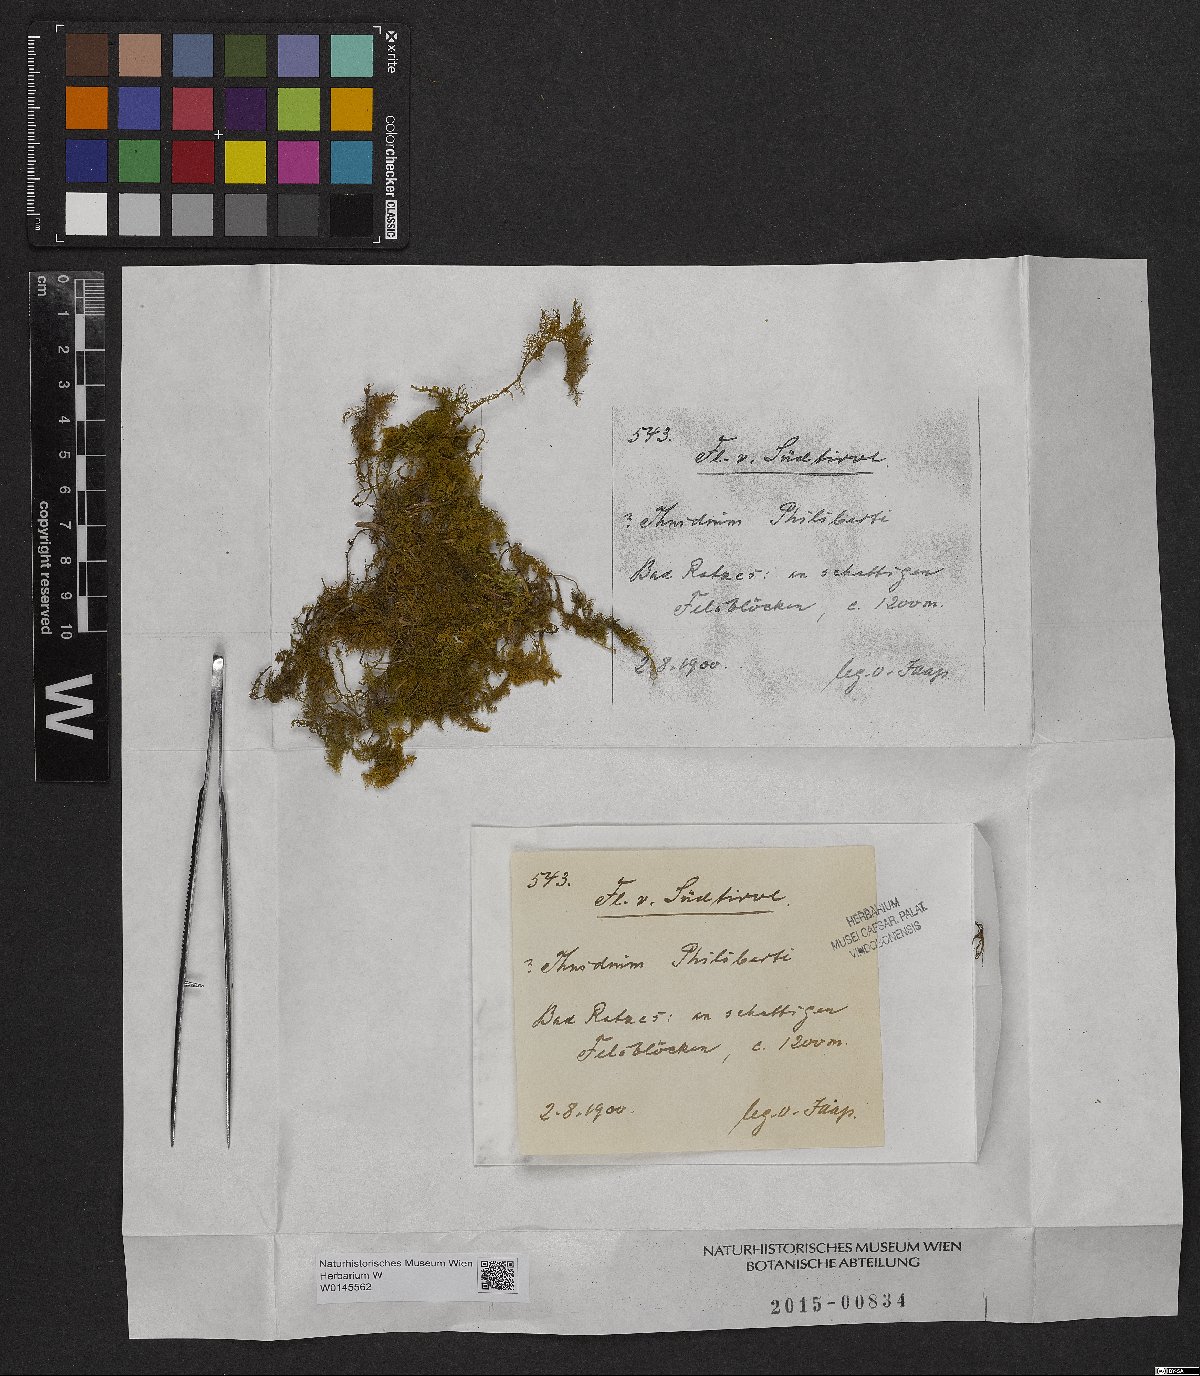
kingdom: Plantae
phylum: Bryophyta
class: Bryopsida
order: Hypnales
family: Thuidiaceae
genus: Thuidium
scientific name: Thuidium assimile
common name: Philibert's fern moss
